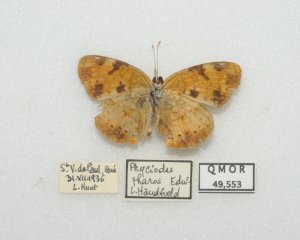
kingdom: Animalia
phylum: Arthropoda
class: Insecta
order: Lepidoptera
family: Nymphalidae
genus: Phyciodes
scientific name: Phyciodes tharos
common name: Northern Crescent
